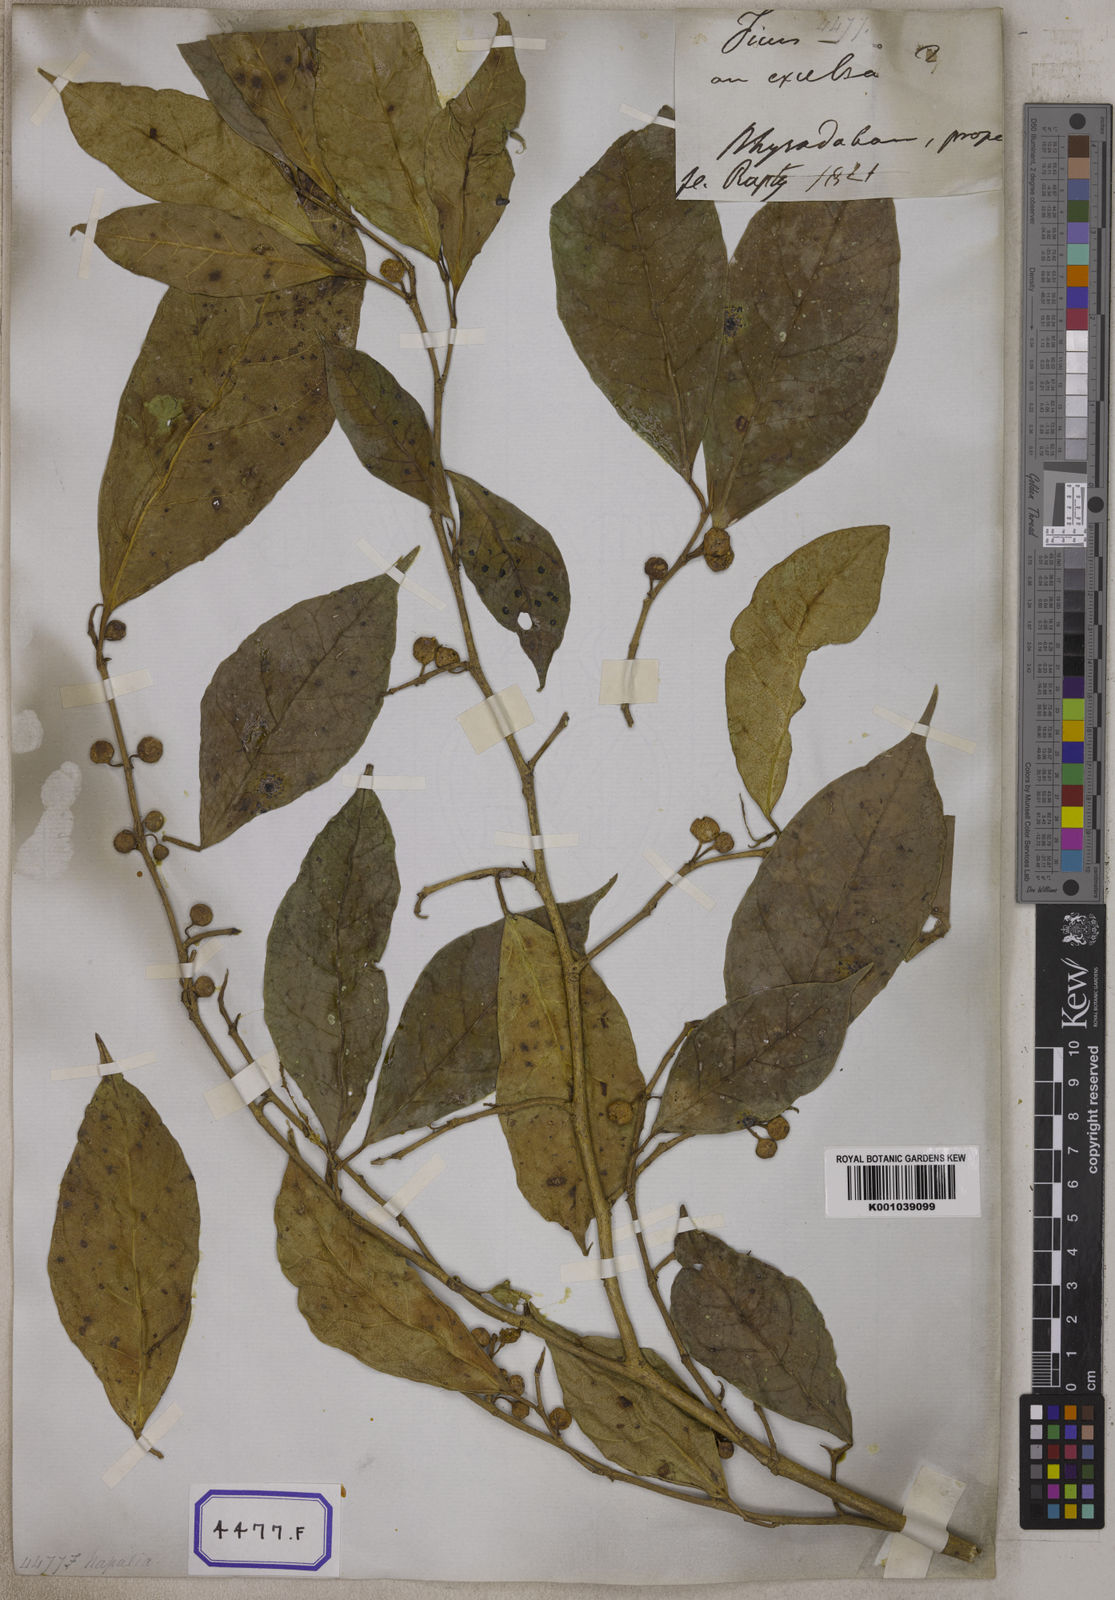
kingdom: Plantae
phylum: Tracheophyta
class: Magnoliopsida
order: Rosales
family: Moraceae
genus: Ficus
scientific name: Ficus tinctoria
